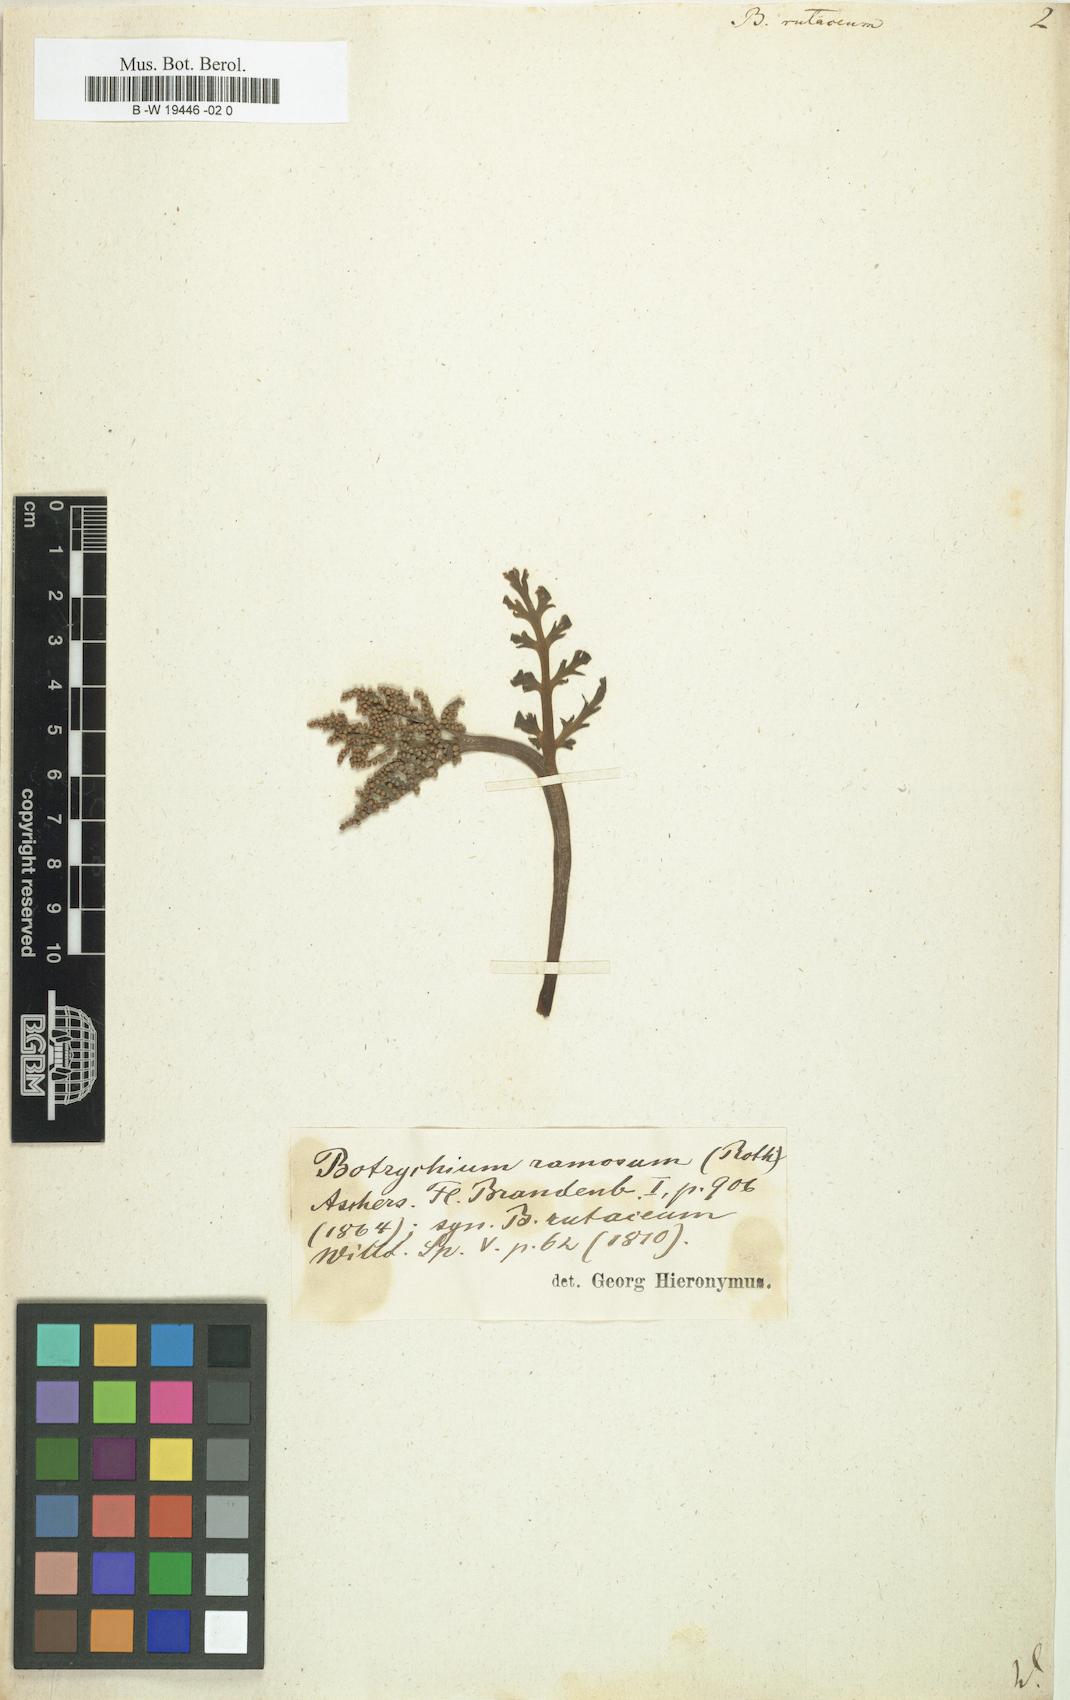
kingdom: Plantae
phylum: Tracheophyta
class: Polypodiopsida
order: Ophioglossales
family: Ophioglossaceae
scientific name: Ophioglossaceae
